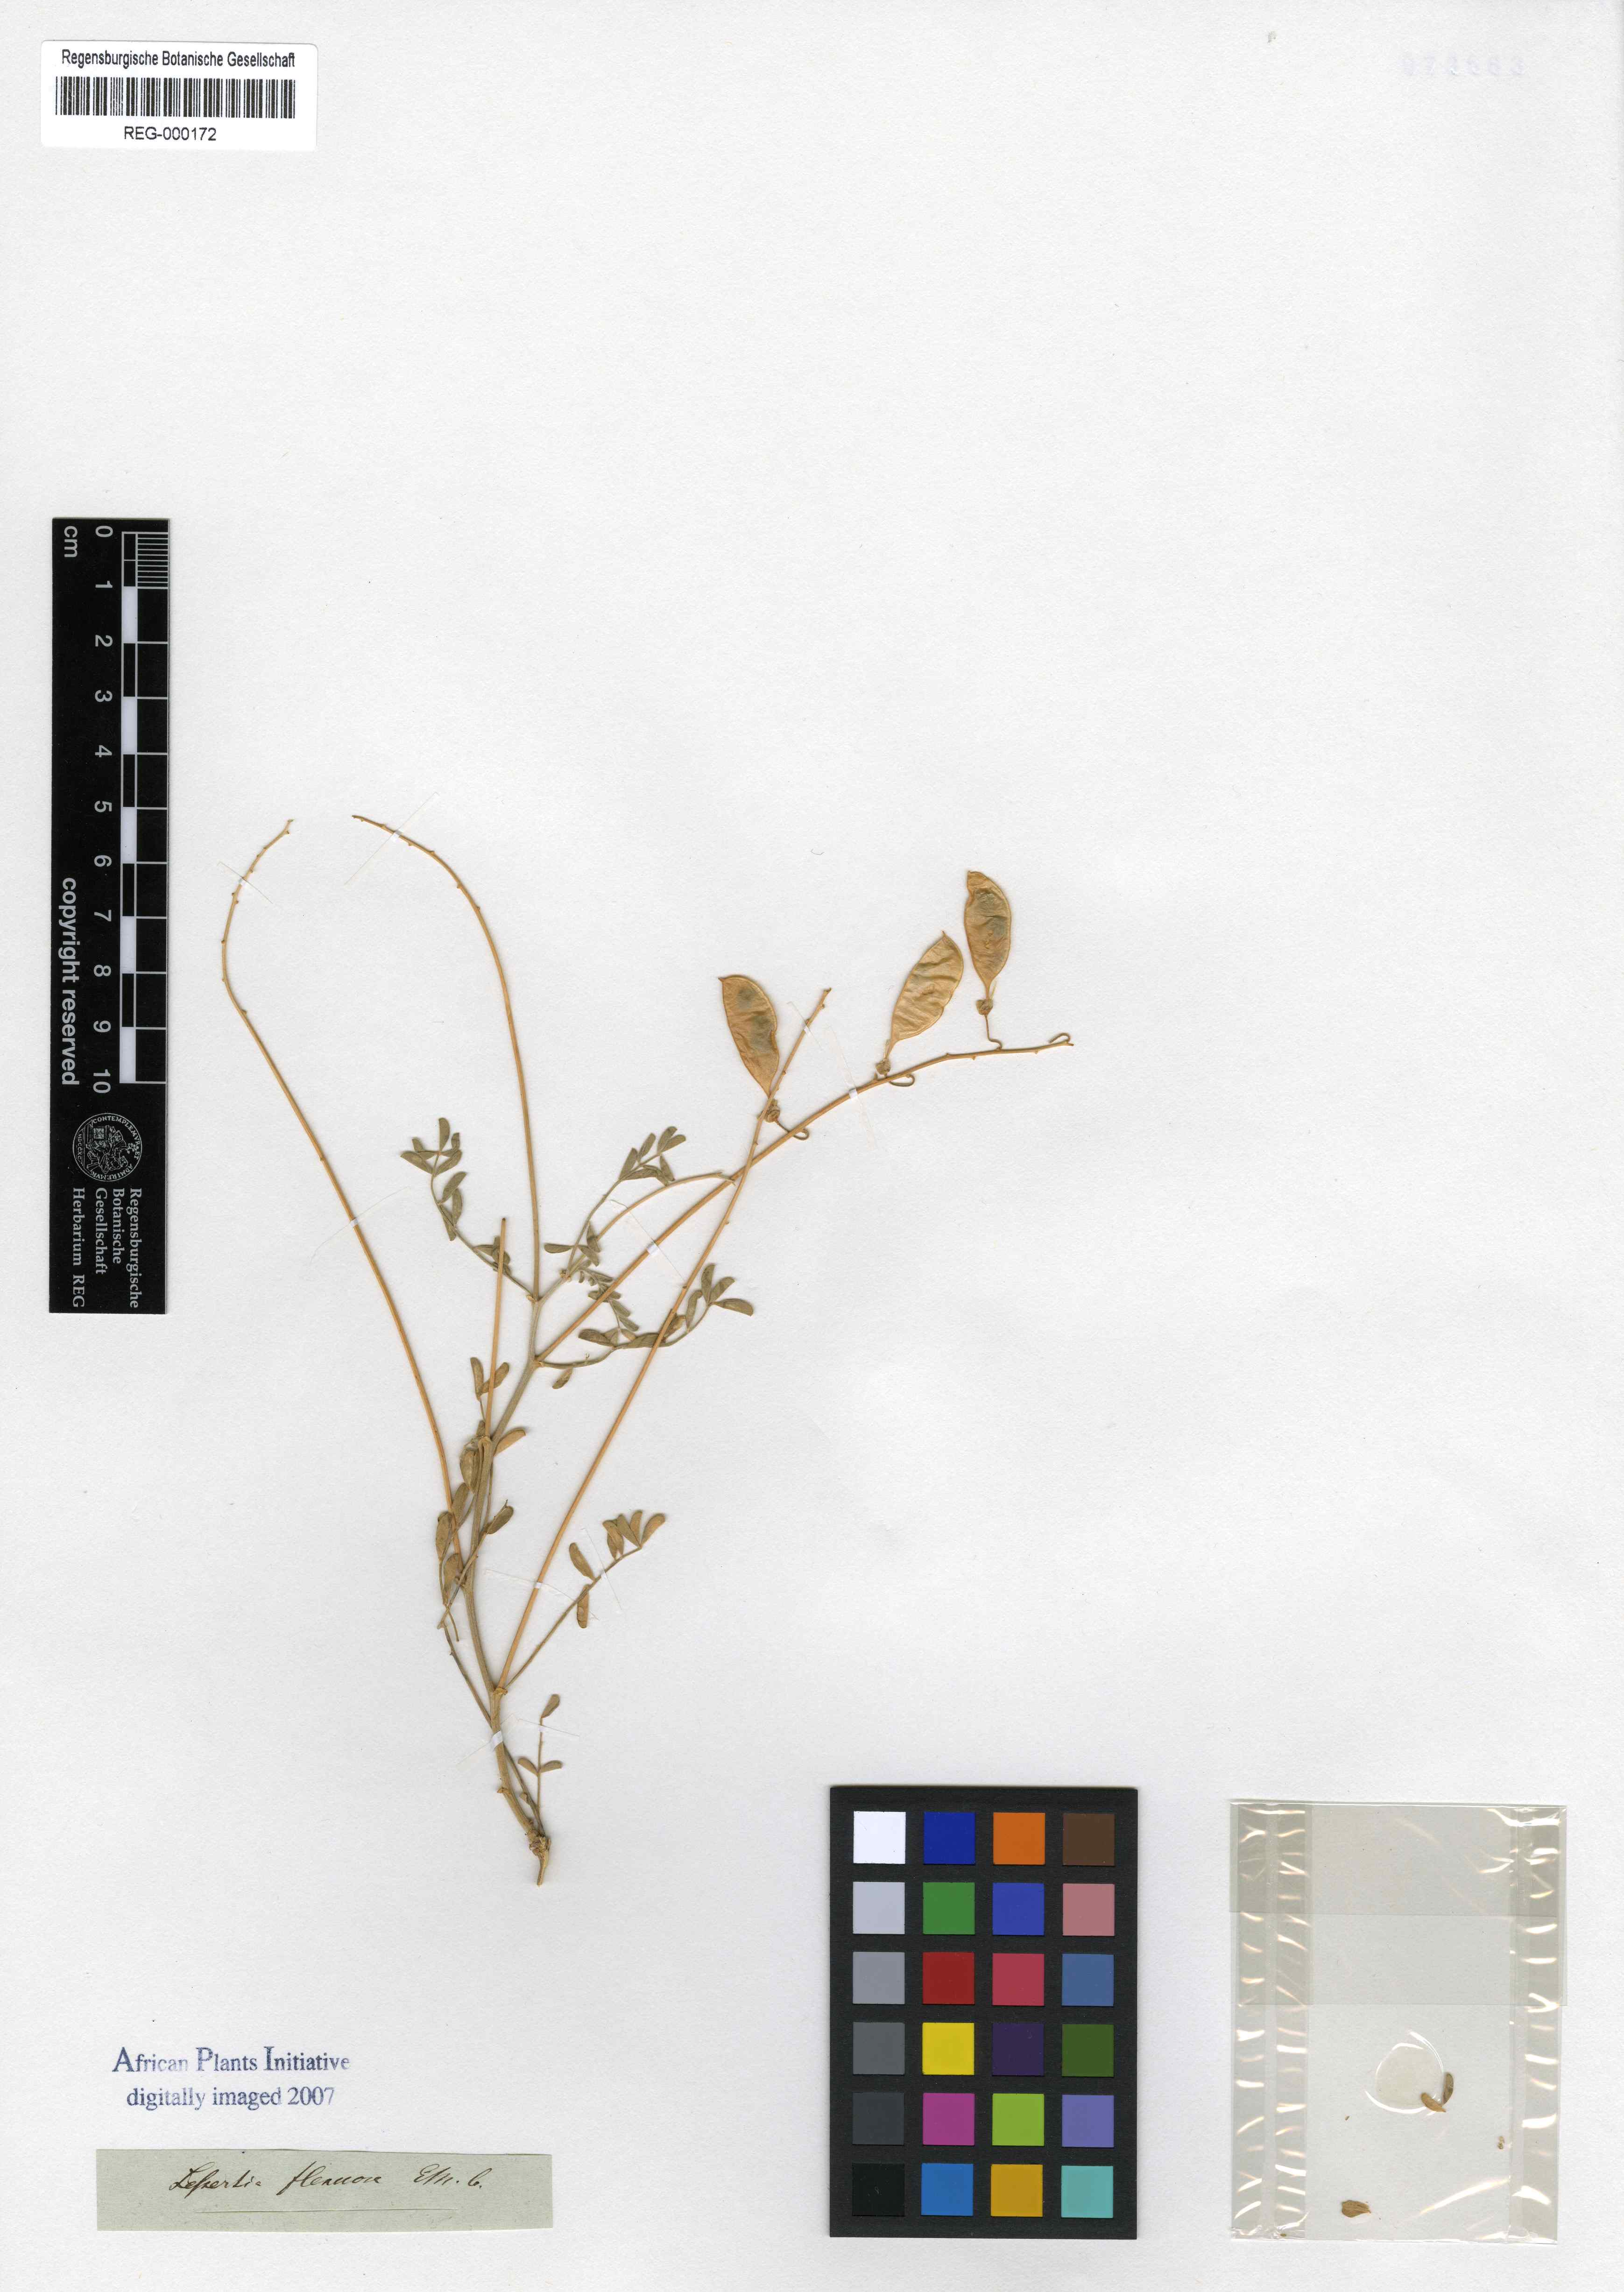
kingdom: Plantae
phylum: Tracheophyta
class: Magnoliopsida
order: Fabales
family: Fabaceae
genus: Lessertia
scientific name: Lessertia flexuosa
